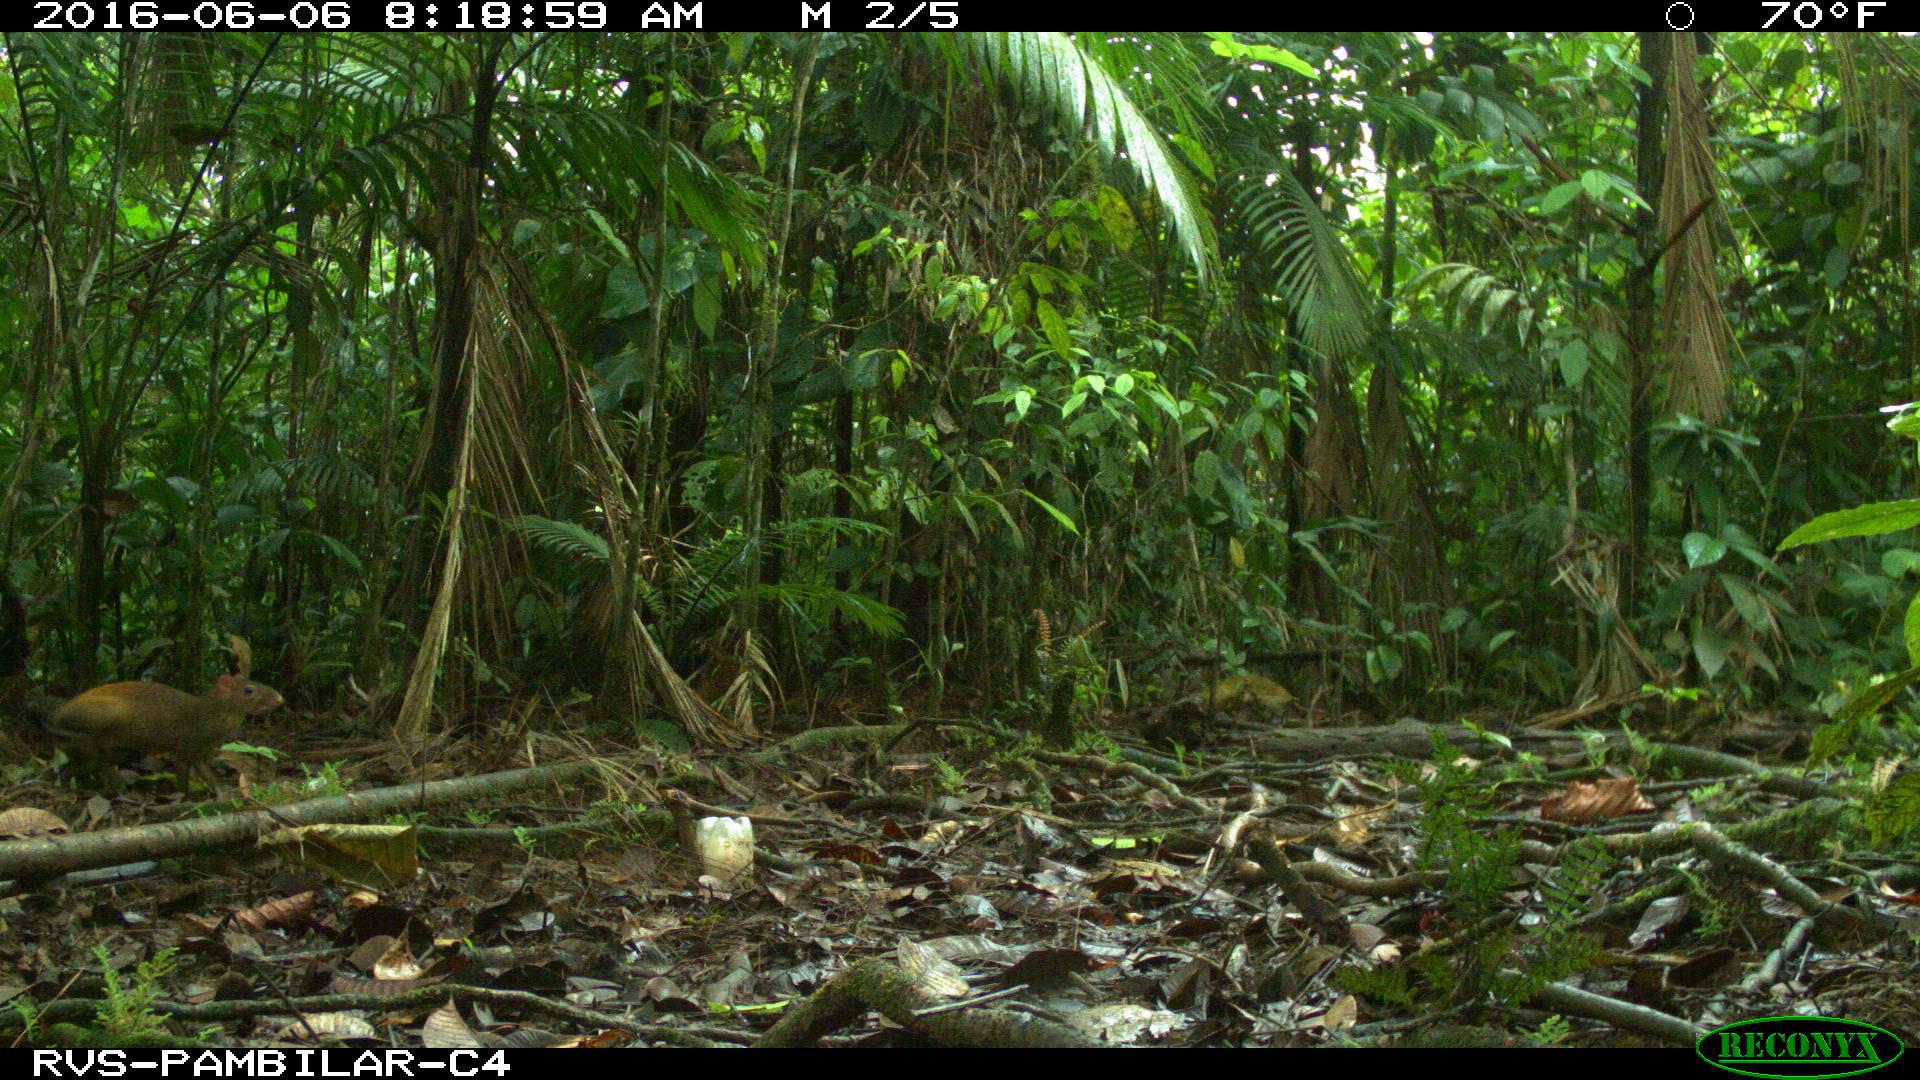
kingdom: Animalia
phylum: Chordata
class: Mammalia
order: Rodentia
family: Dasyproctidae
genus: Dasyprocta
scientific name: Dasyprocta punctata
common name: Central american agouti
